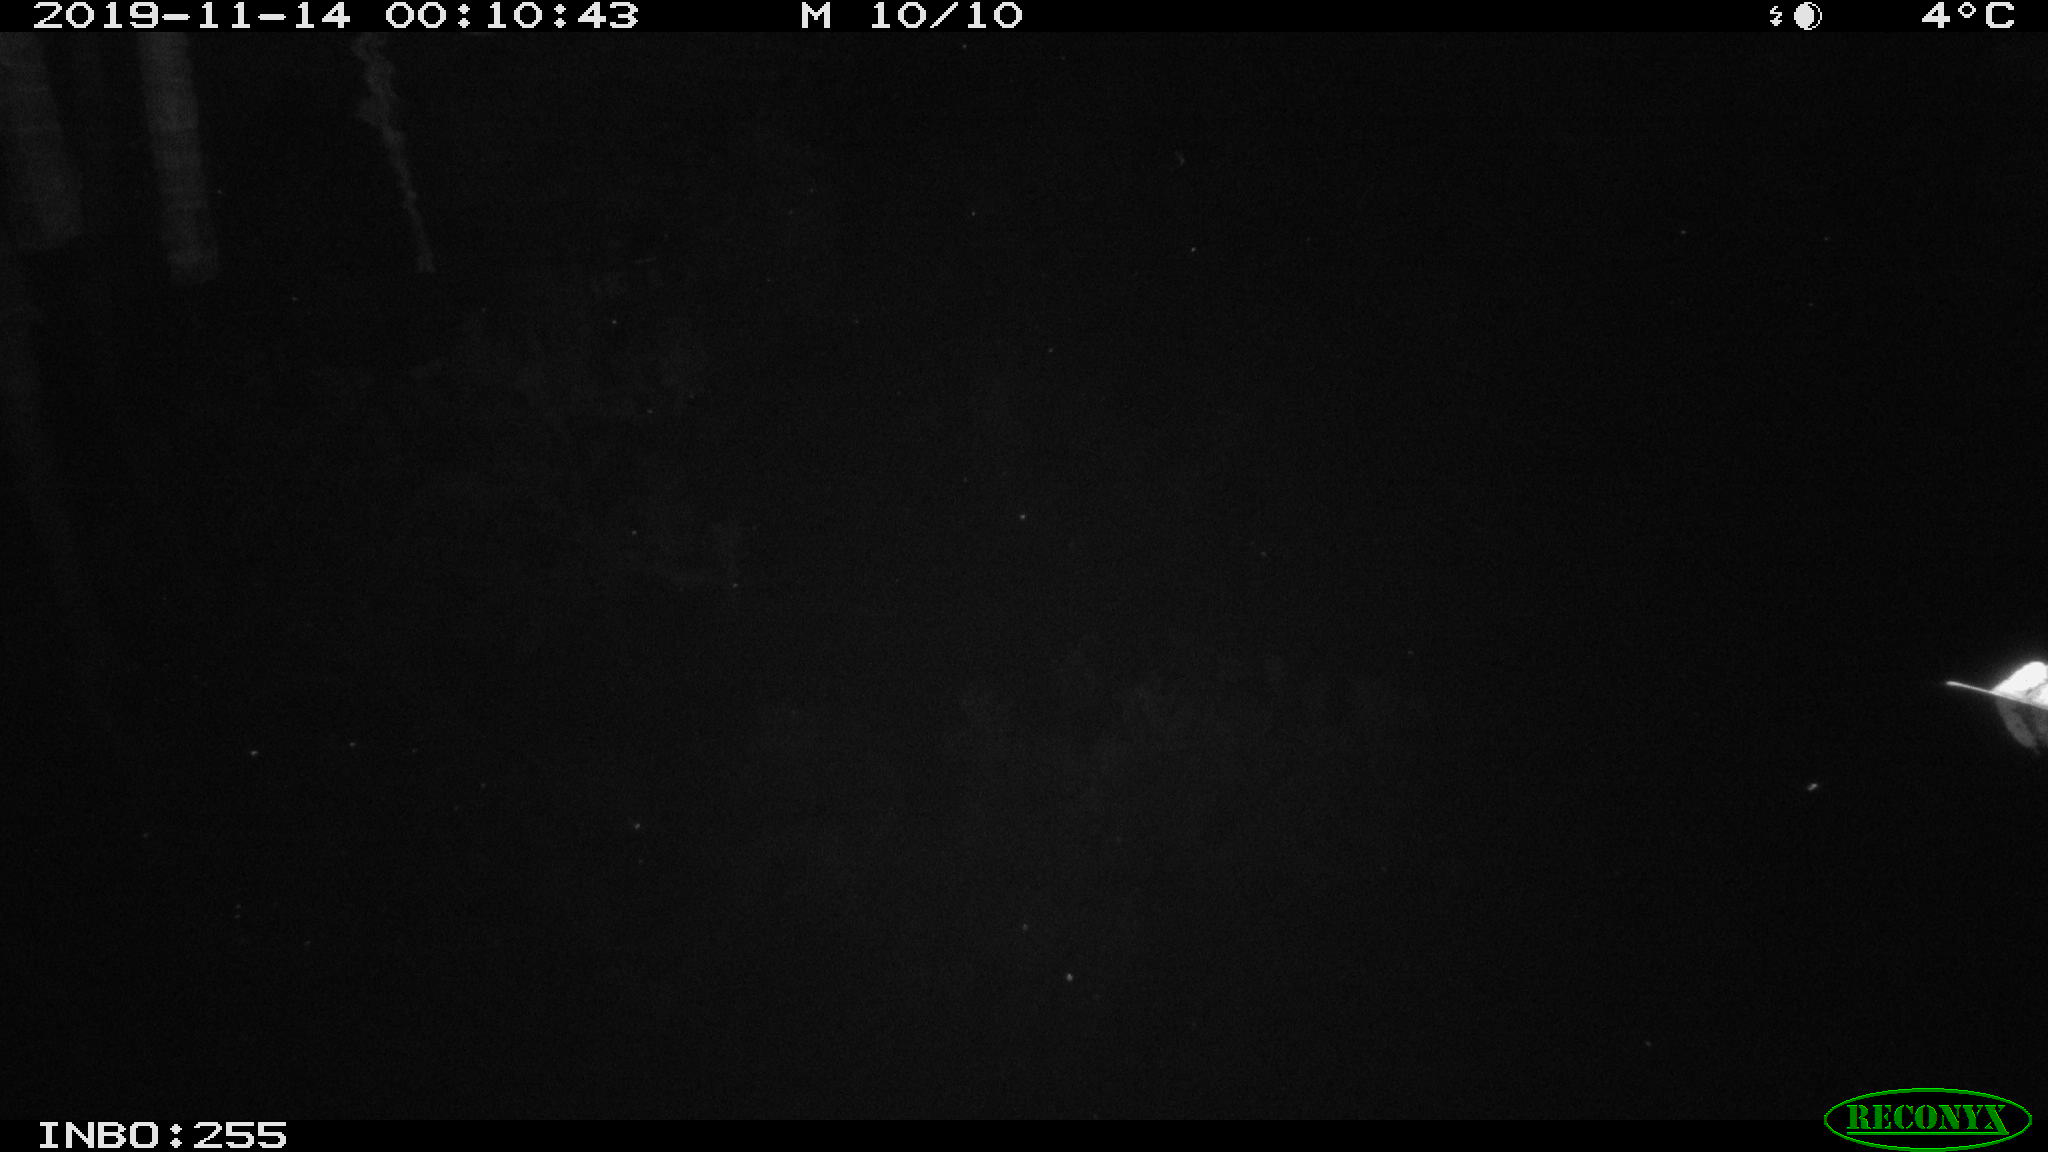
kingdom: Animalia
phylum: Chordata
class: Mammalia
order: Rodentia
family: Muridae
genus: Rattus
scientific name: Rattus norvegicus
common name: Brown rat
